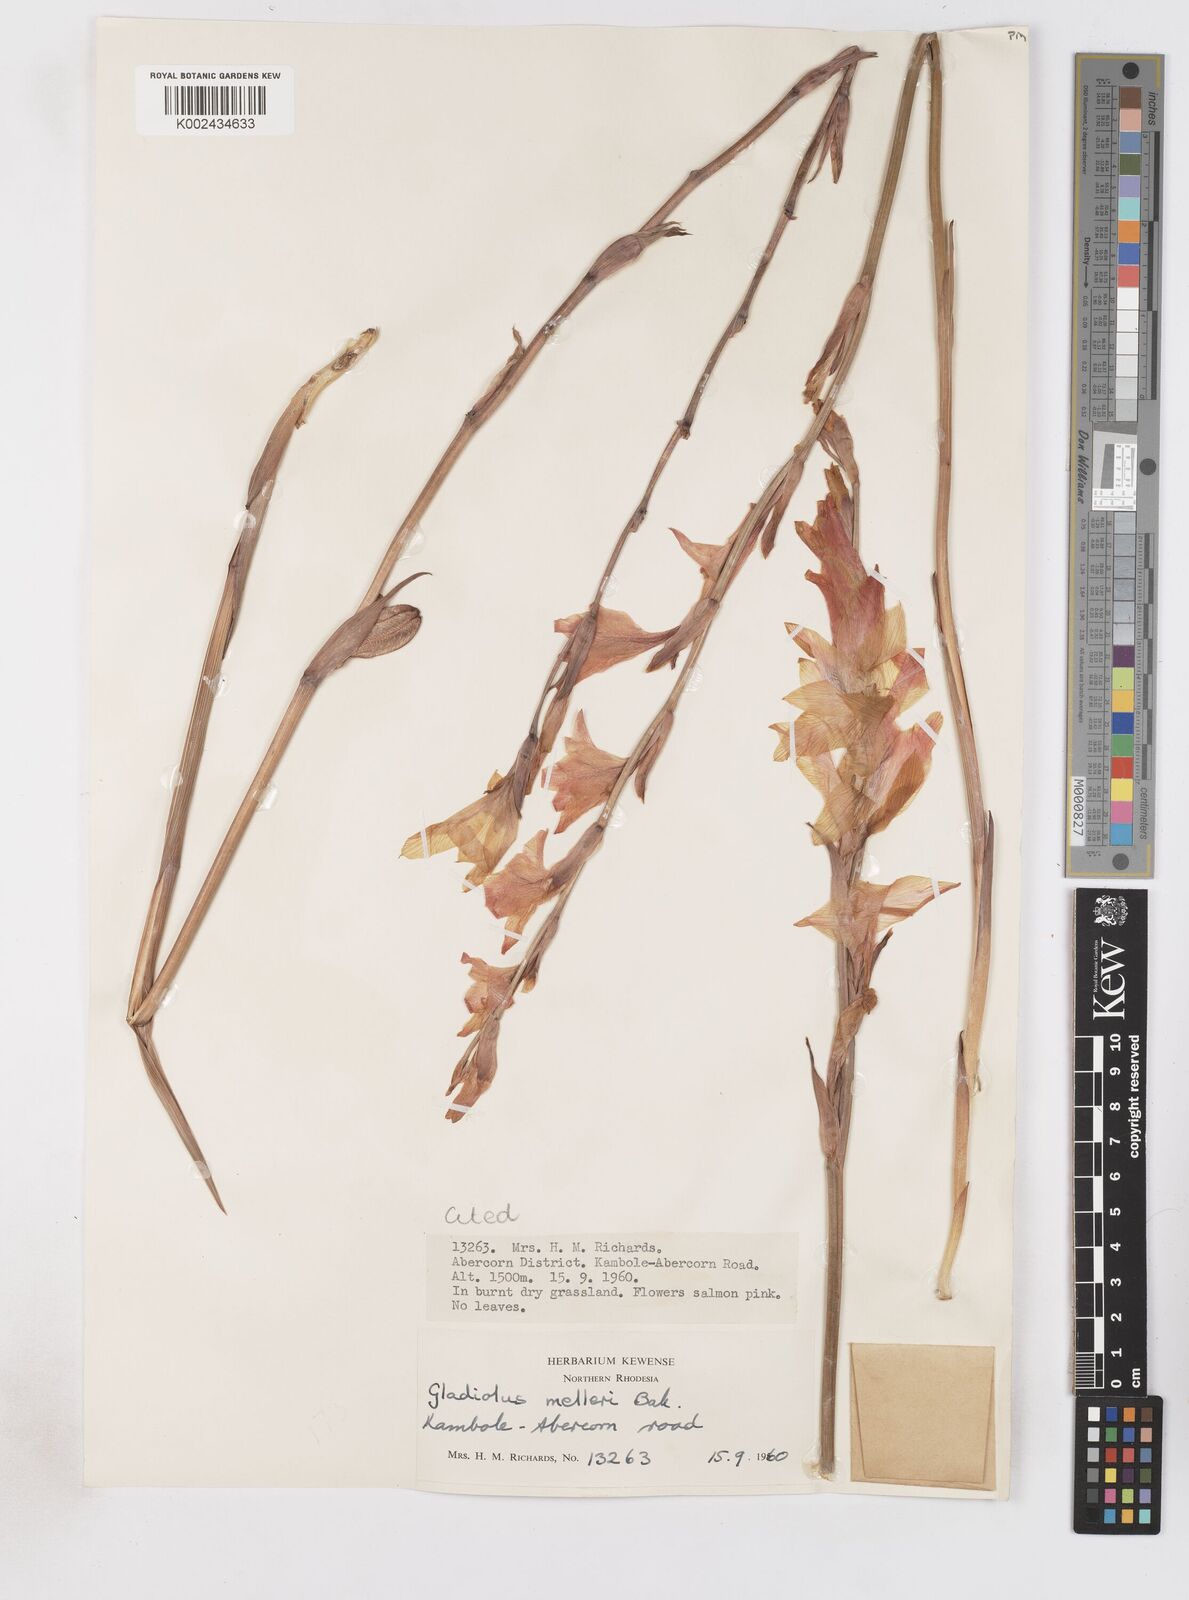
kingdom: Plantae
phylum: Tracheophyta
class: Liliopsida
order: Asparagales
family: Iridaceae
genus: Gladiolus
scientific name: Gladiolus melleri
